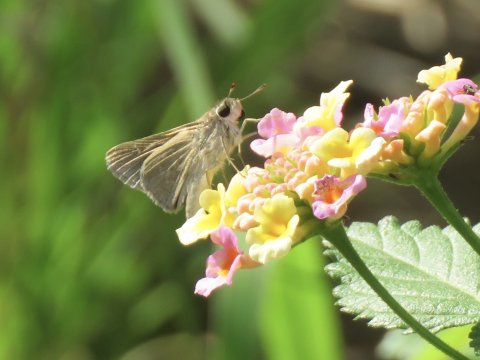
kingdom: Animalia
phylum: Arthropoda
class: Insecta
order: Lepidoptera
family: Hesperiidae
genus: Lerodea
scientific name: Lerodea eufala
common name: Eufala Skipper
